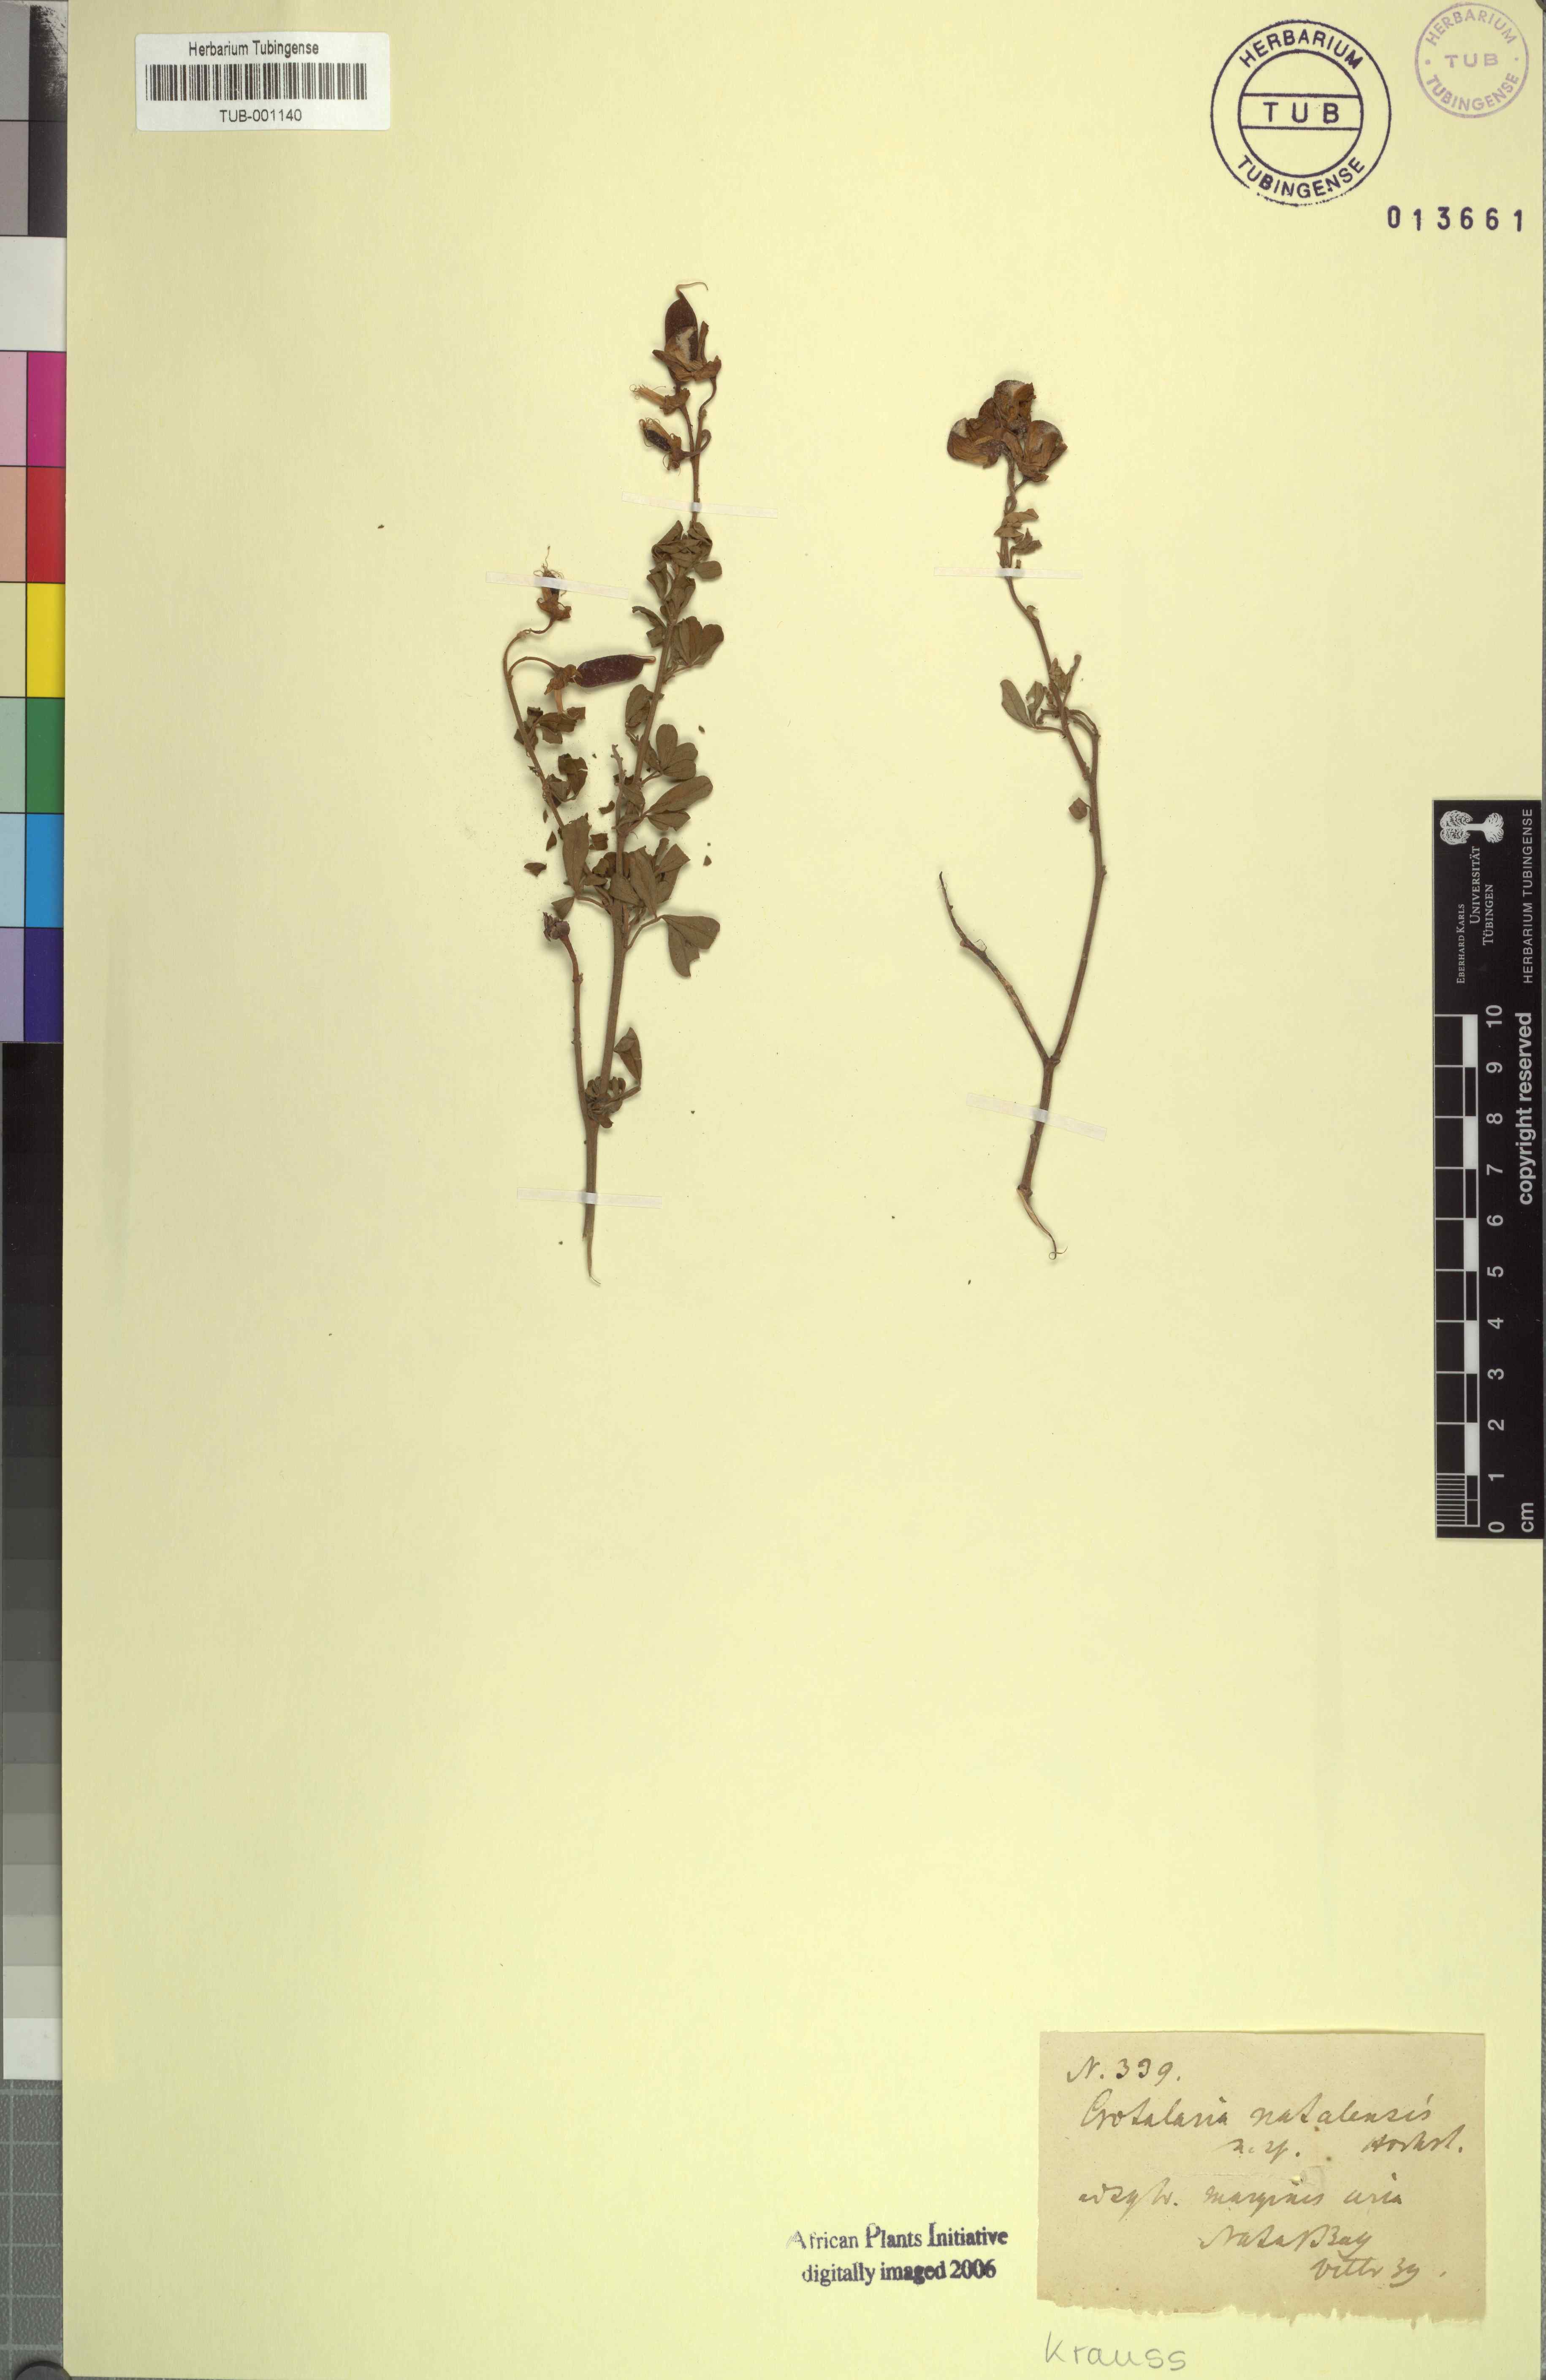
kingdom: Plantae
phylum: Tracheophyta
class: Magnoliopsida
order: Fabales
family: Fabaceae
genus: Crotalaria
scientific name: Crotalaria natalitia
